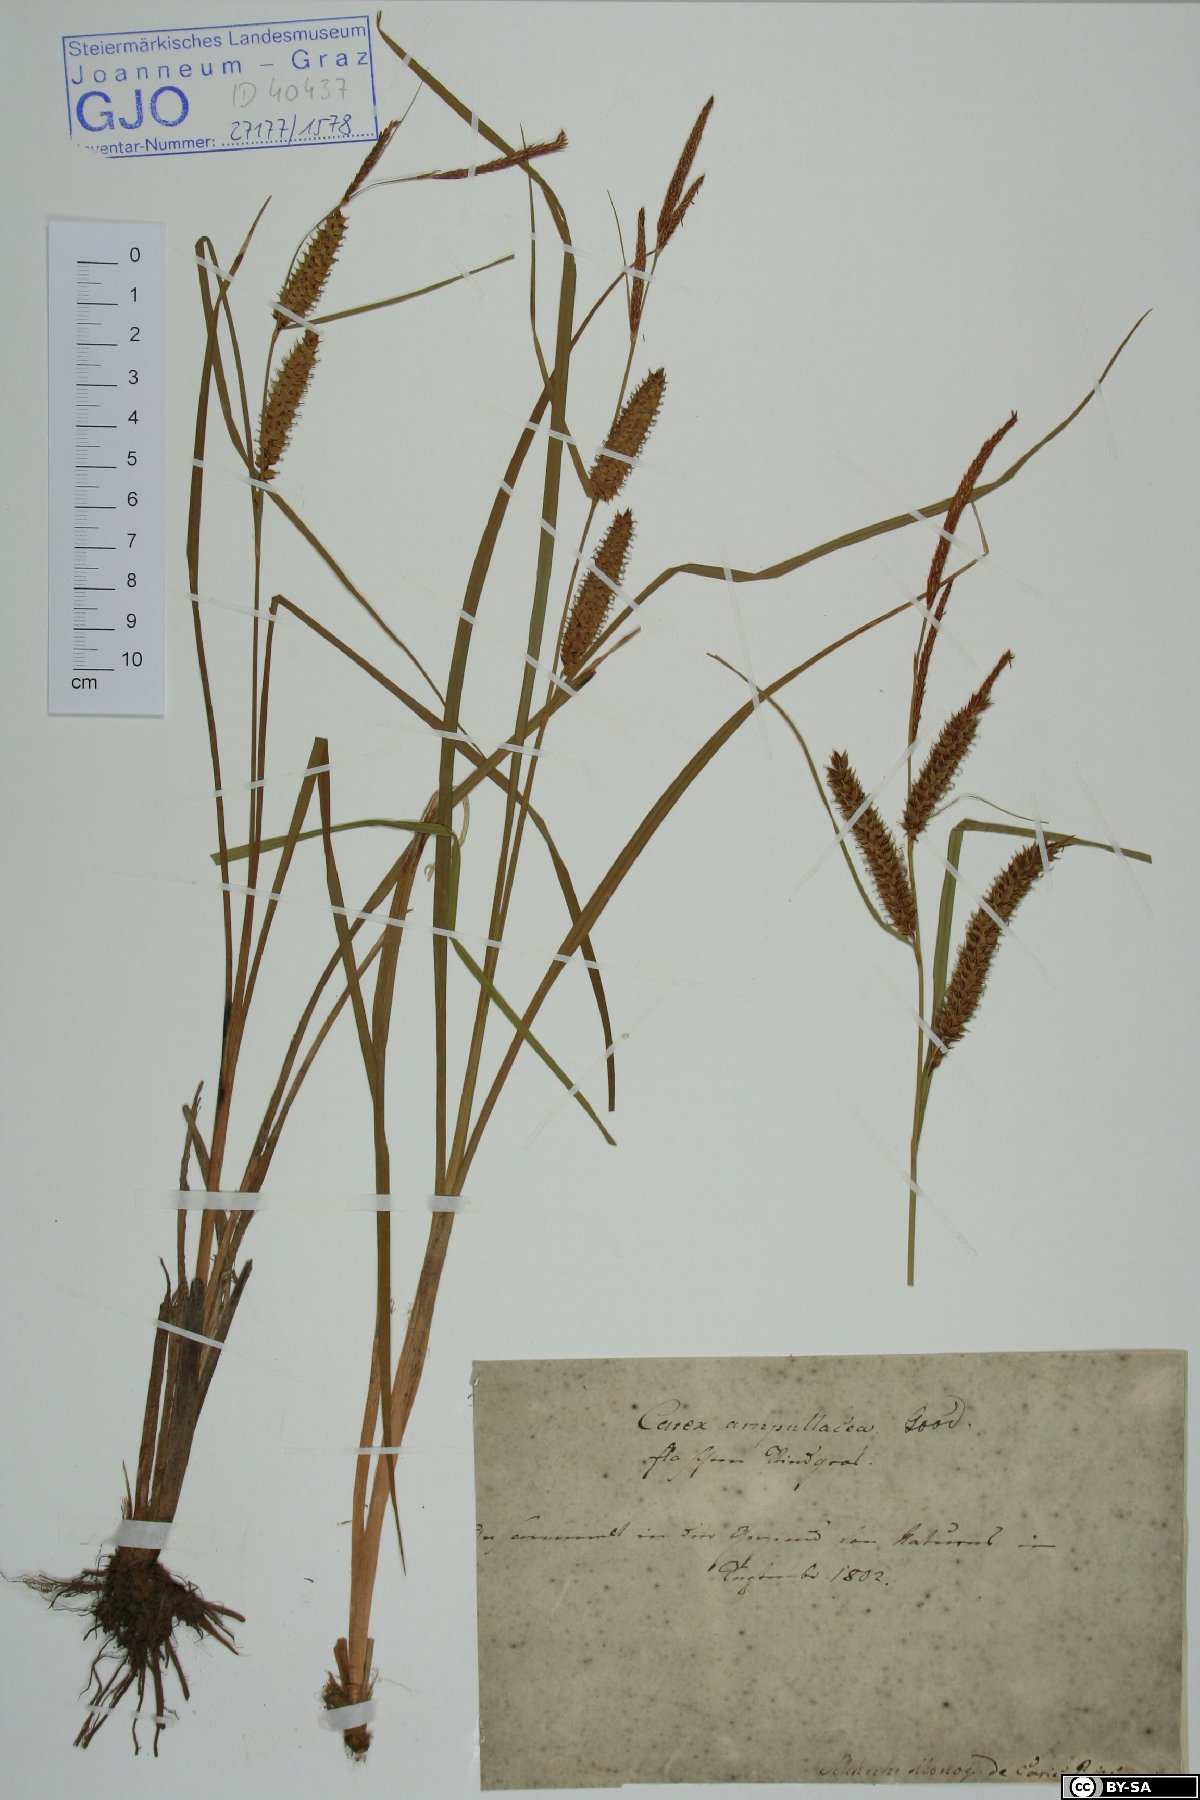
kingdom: Plantae
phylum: Tracheophyta
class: Liliopsida
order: Poales
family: Cyperaceae
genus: Carex
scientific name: Carex rostrata
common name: Bottle sedge
